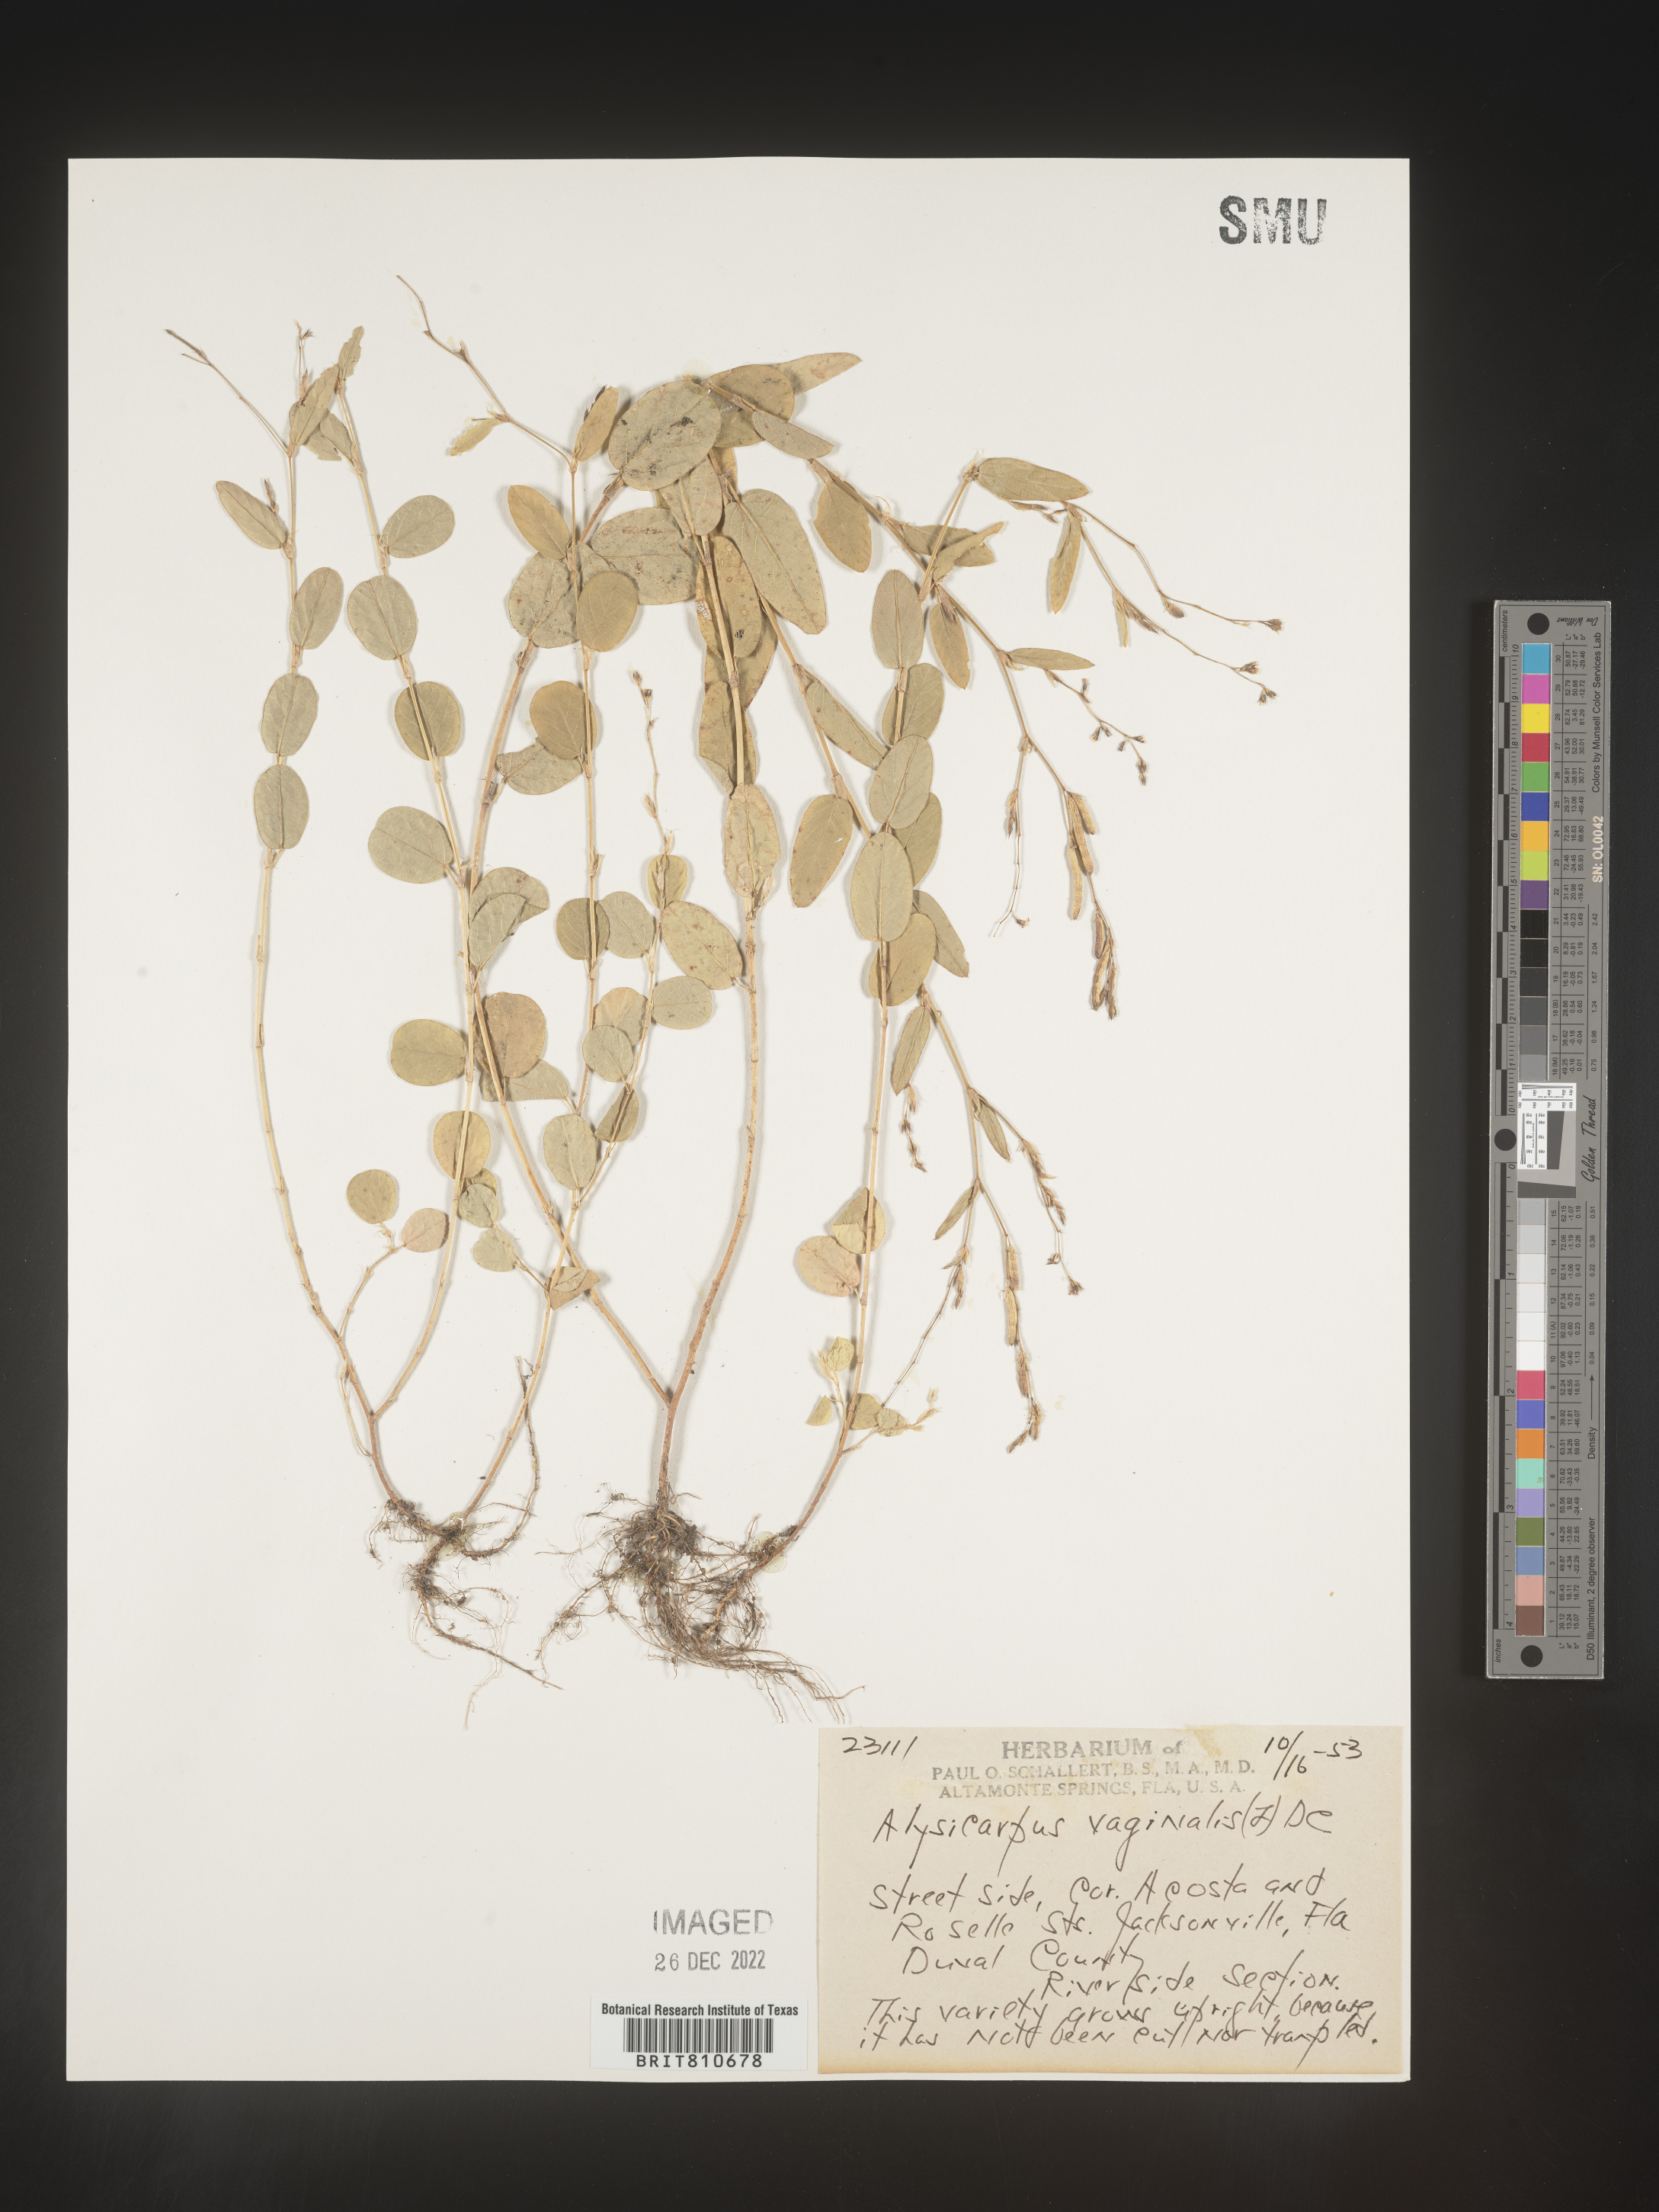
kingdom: Plantae
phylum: Tracheophyta
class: Magnoliopsida
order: Fabales
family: Fabaceae
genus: Alysicarpus
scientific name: Alysicarpus
